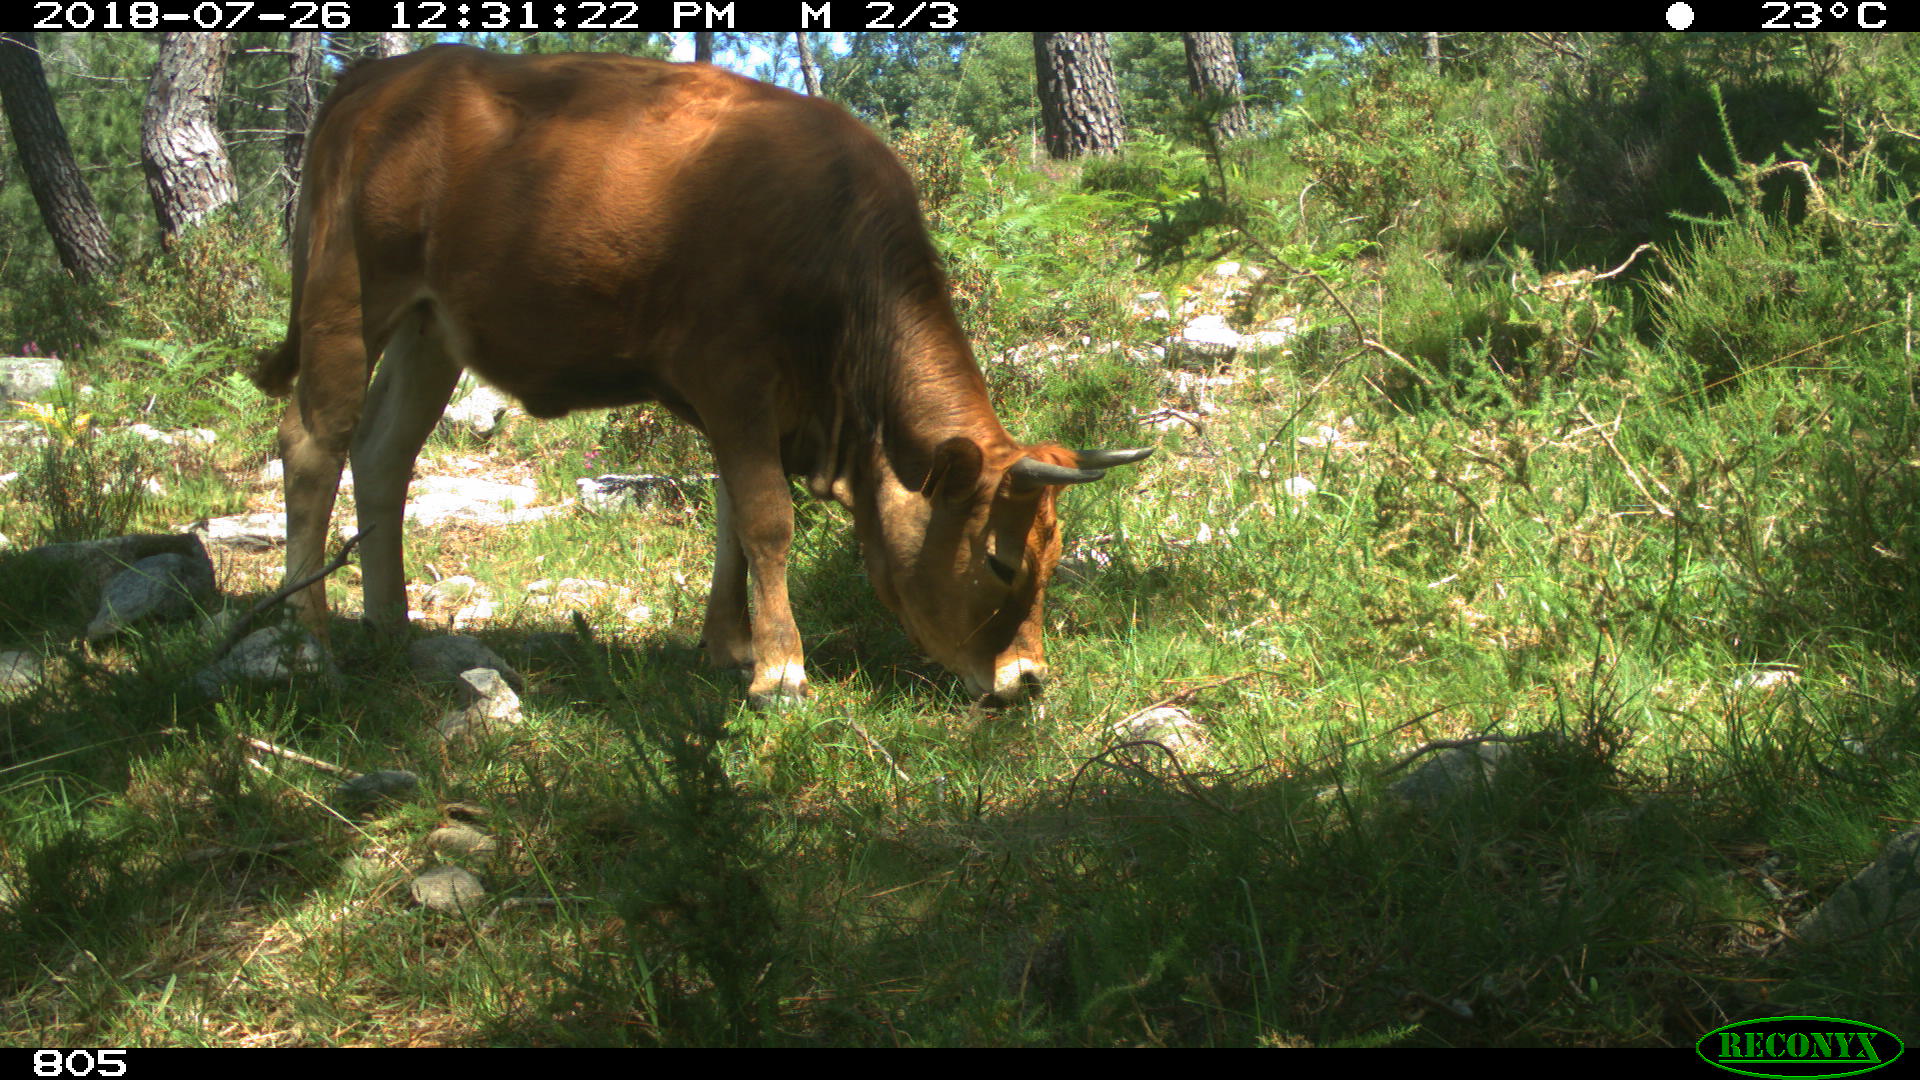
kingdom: Animalia
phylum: Chordata
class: Mammalia
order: Artiodactyla
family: Suidae
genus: Sus
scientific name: Sus scrofa
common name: Wild boar
